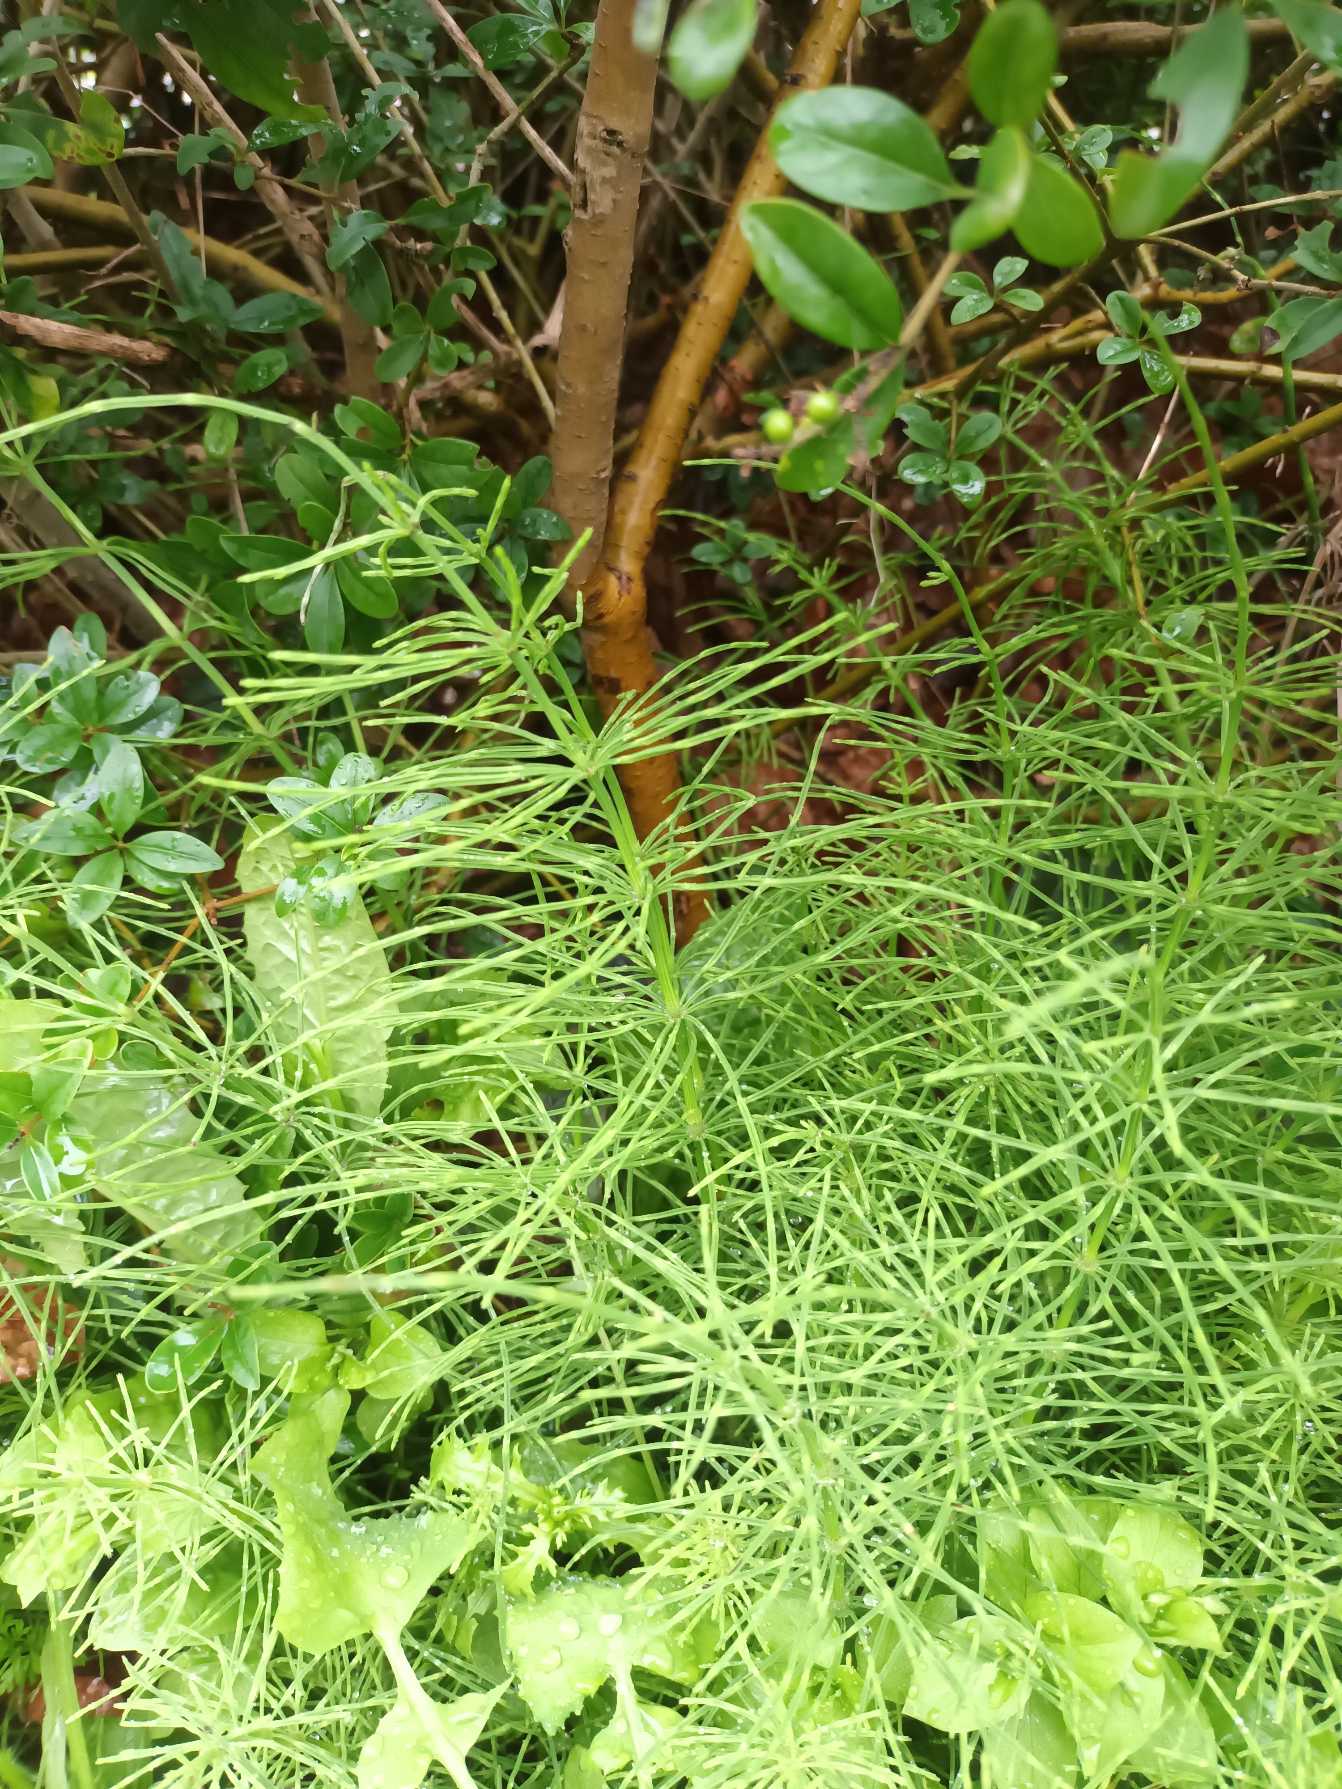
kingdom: Plantae
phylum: Tracheophyta
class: Polypodiopsida
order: Equisetales
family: Equisetaceae
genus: Equisetum
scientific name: Equisetum arvense
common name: Ager-padderok
